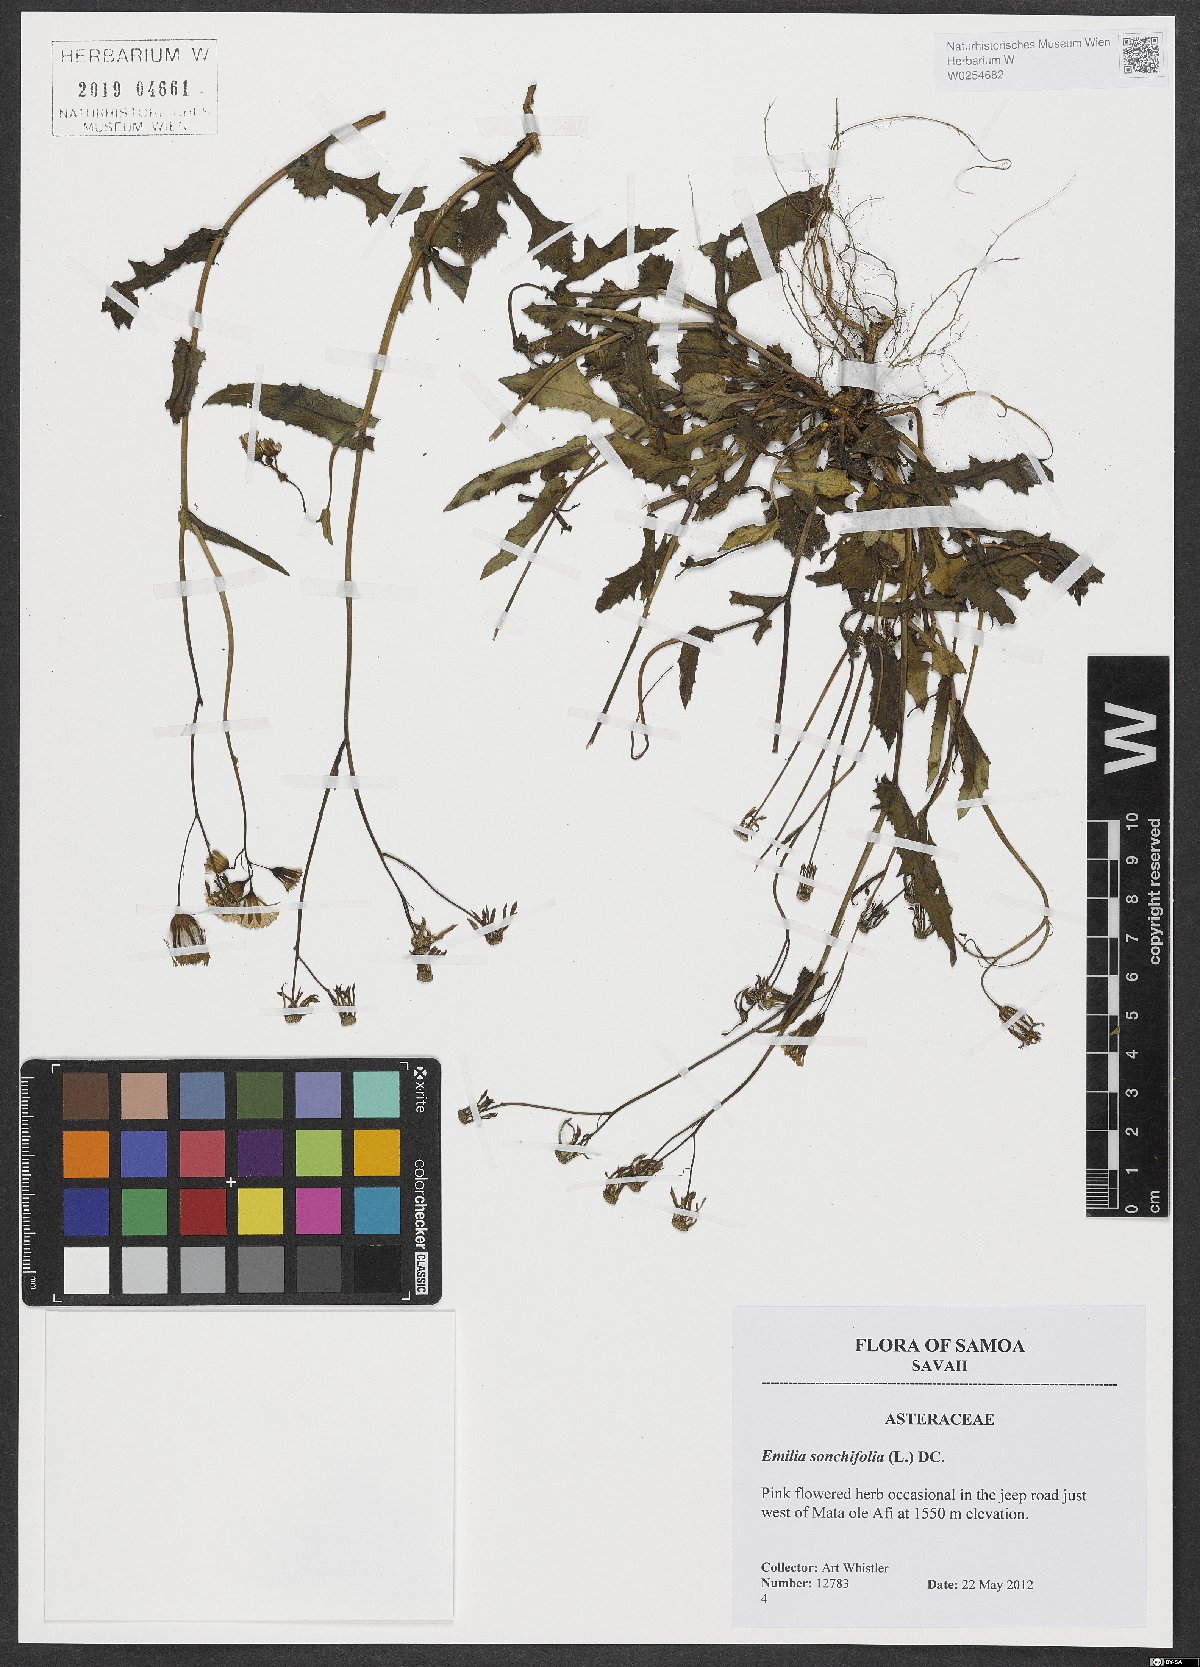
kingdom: Plantae
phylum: Tracheophyta
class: Magnoliopsida
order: Asterales
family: Asteraceae
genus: Emilia
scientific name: Emilia sonchifolia
